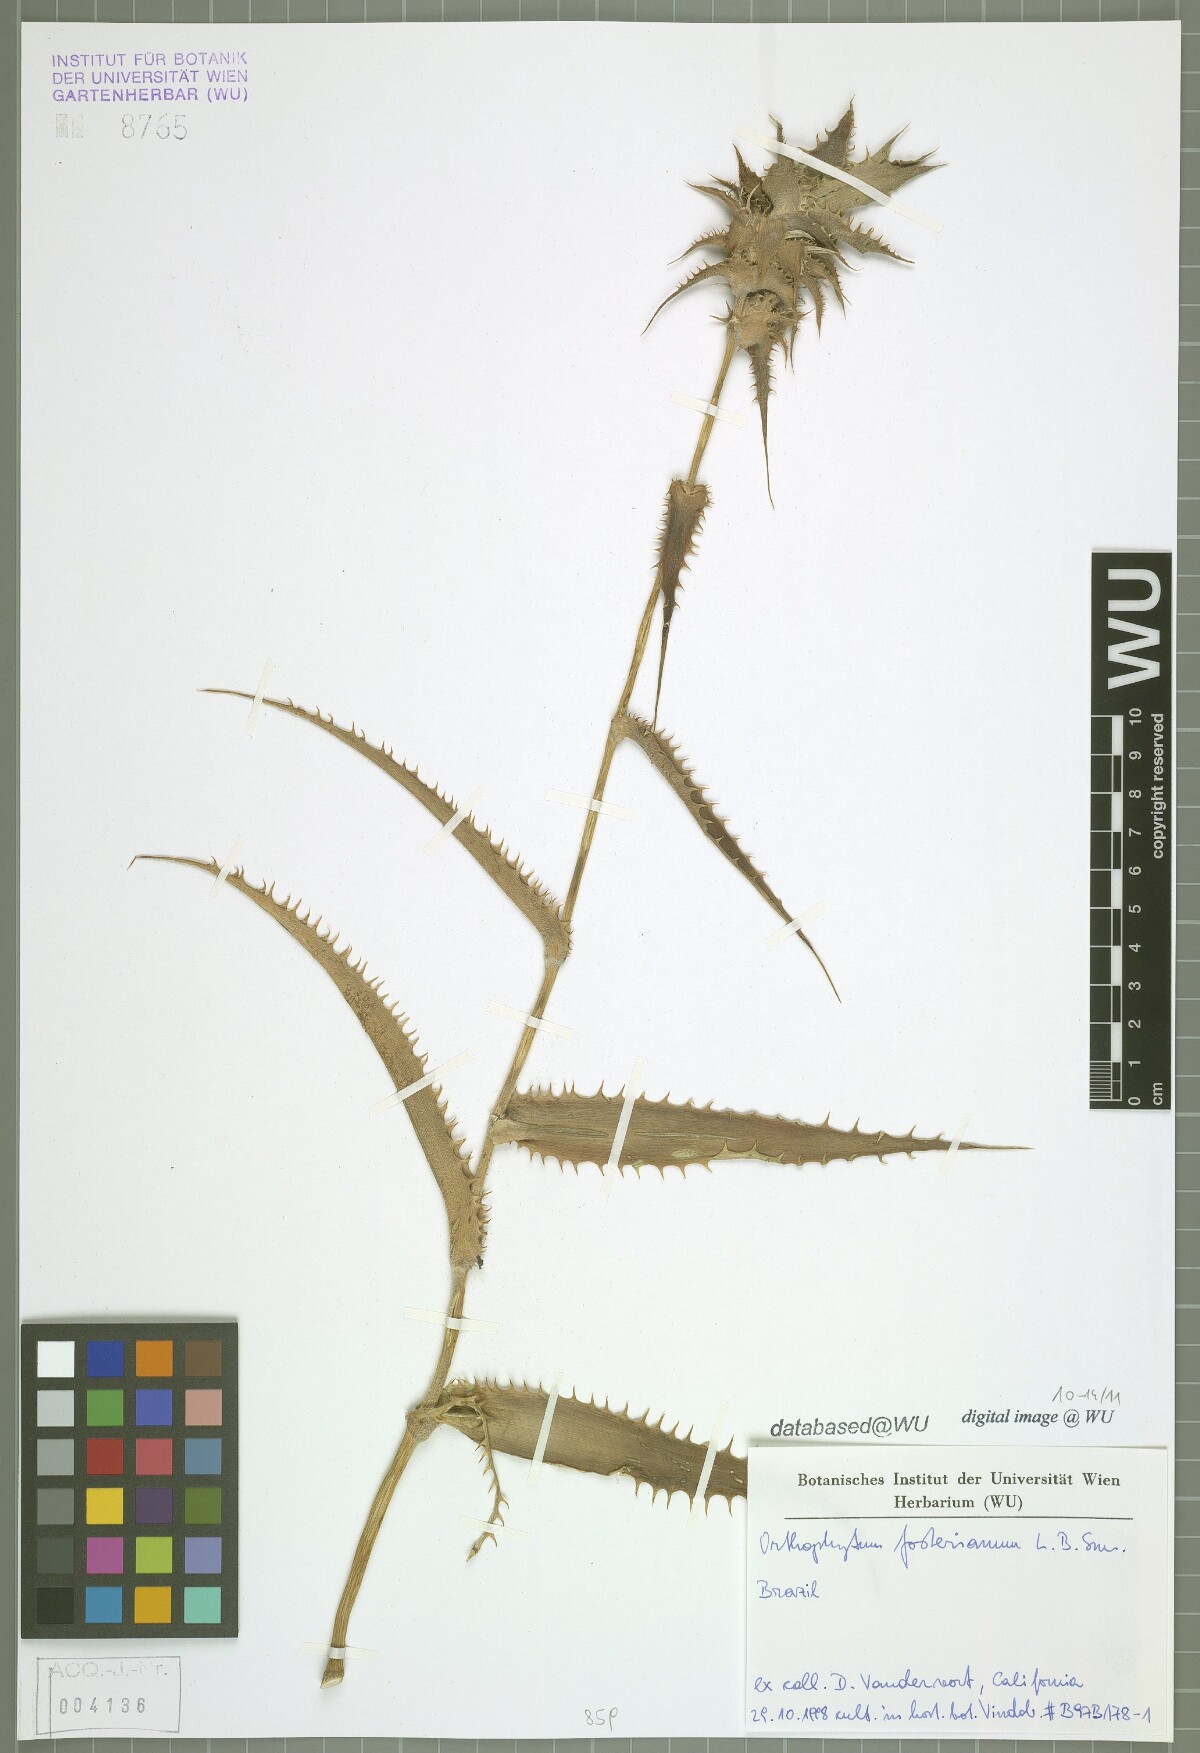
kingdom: Plantae
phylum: Tracheophyta
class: Liliopsida
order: Poales
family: Bromeliaceae
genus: Orthophytum
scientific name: Orthophytum fosterianum
